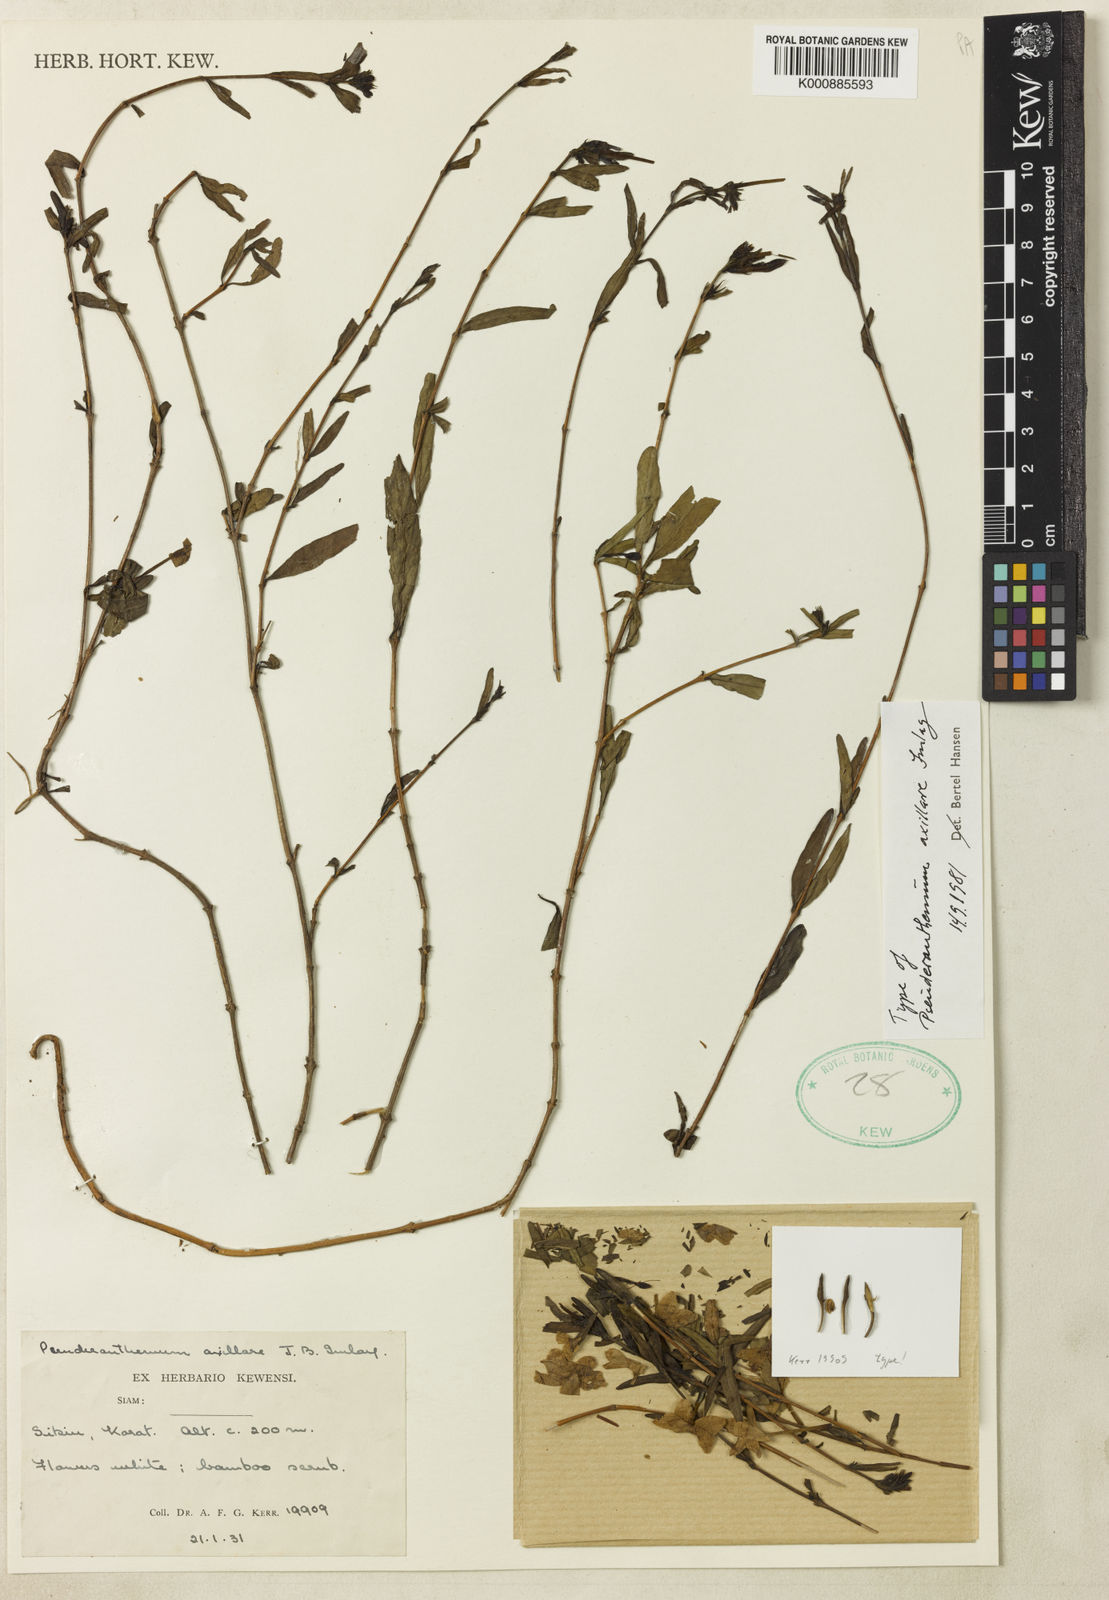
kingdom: Plantae
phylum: Tracheophyta
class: Magnoliopsida
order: Lamiales
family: Acanthaceae
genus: Pseuderanthemum
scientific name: Pseuderanthemum axillare
